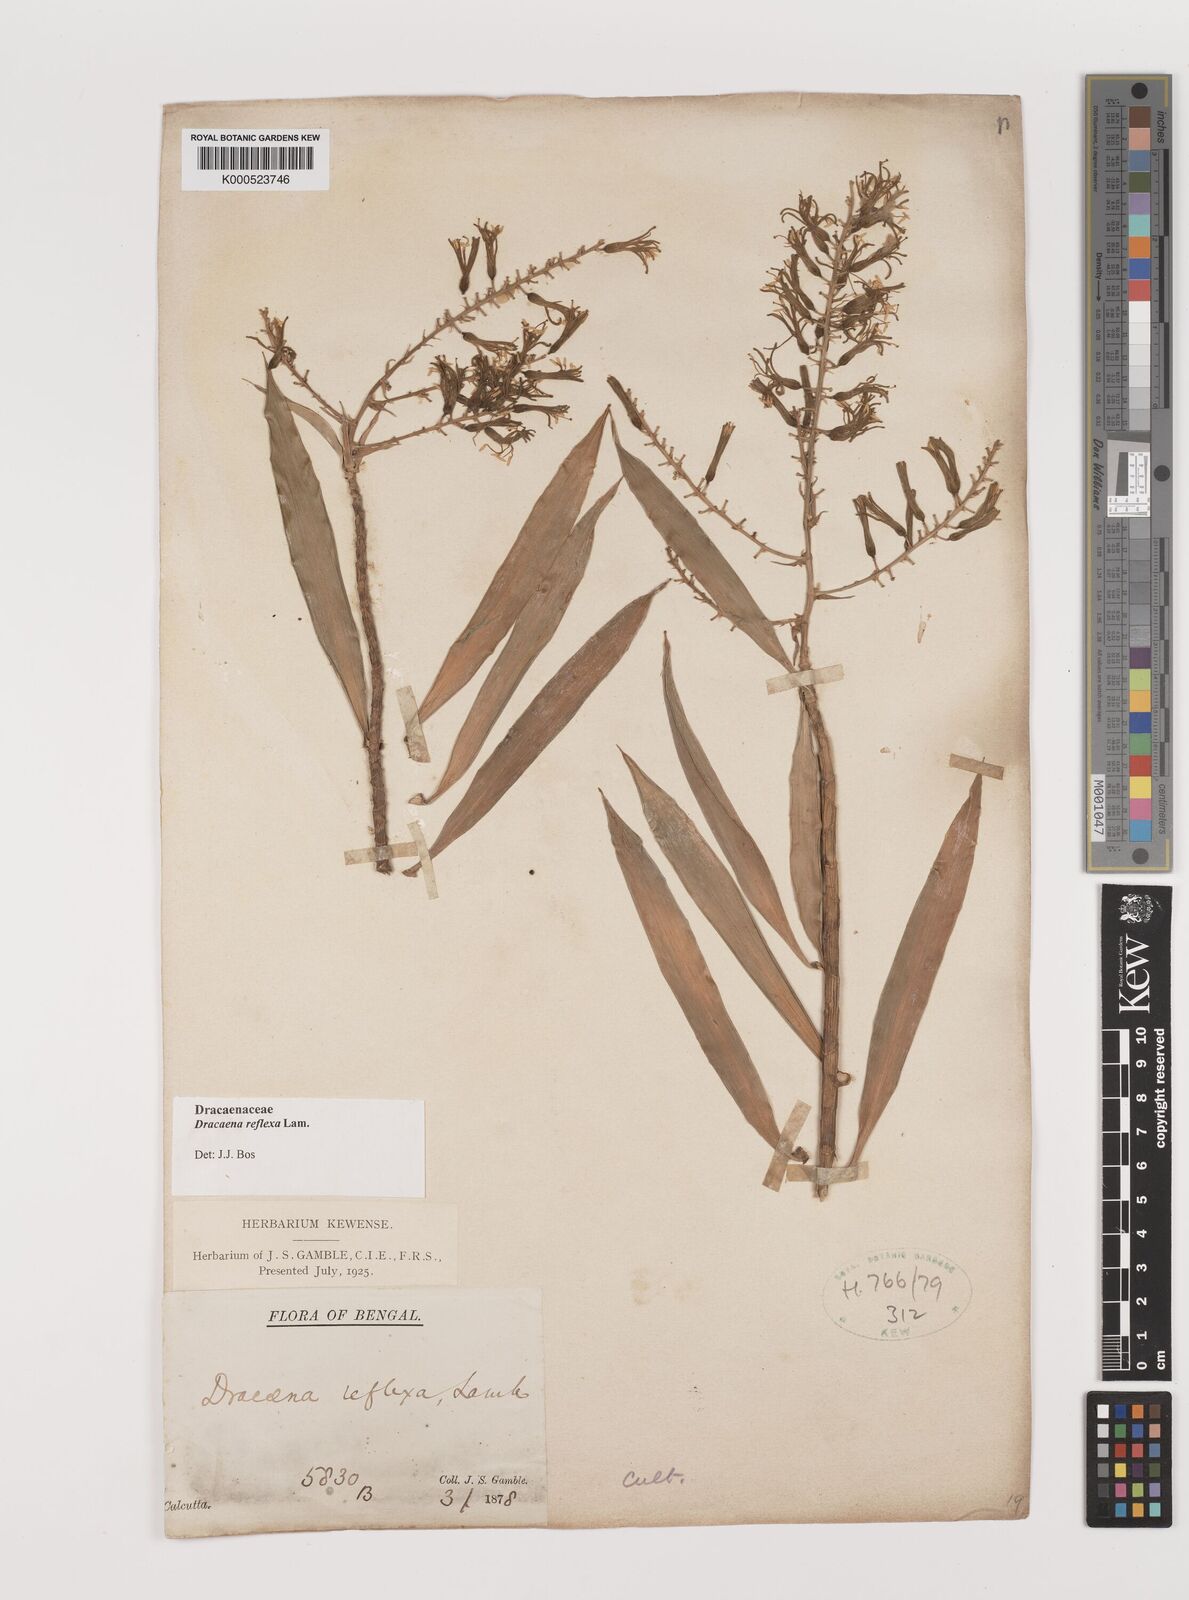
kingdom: Plantae
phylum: Tracheophyta
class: Liliopsida
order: Asparagales
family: Asparagaceae
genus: Dracaena
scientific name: Dracaena reflexa
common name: Song-of-india
